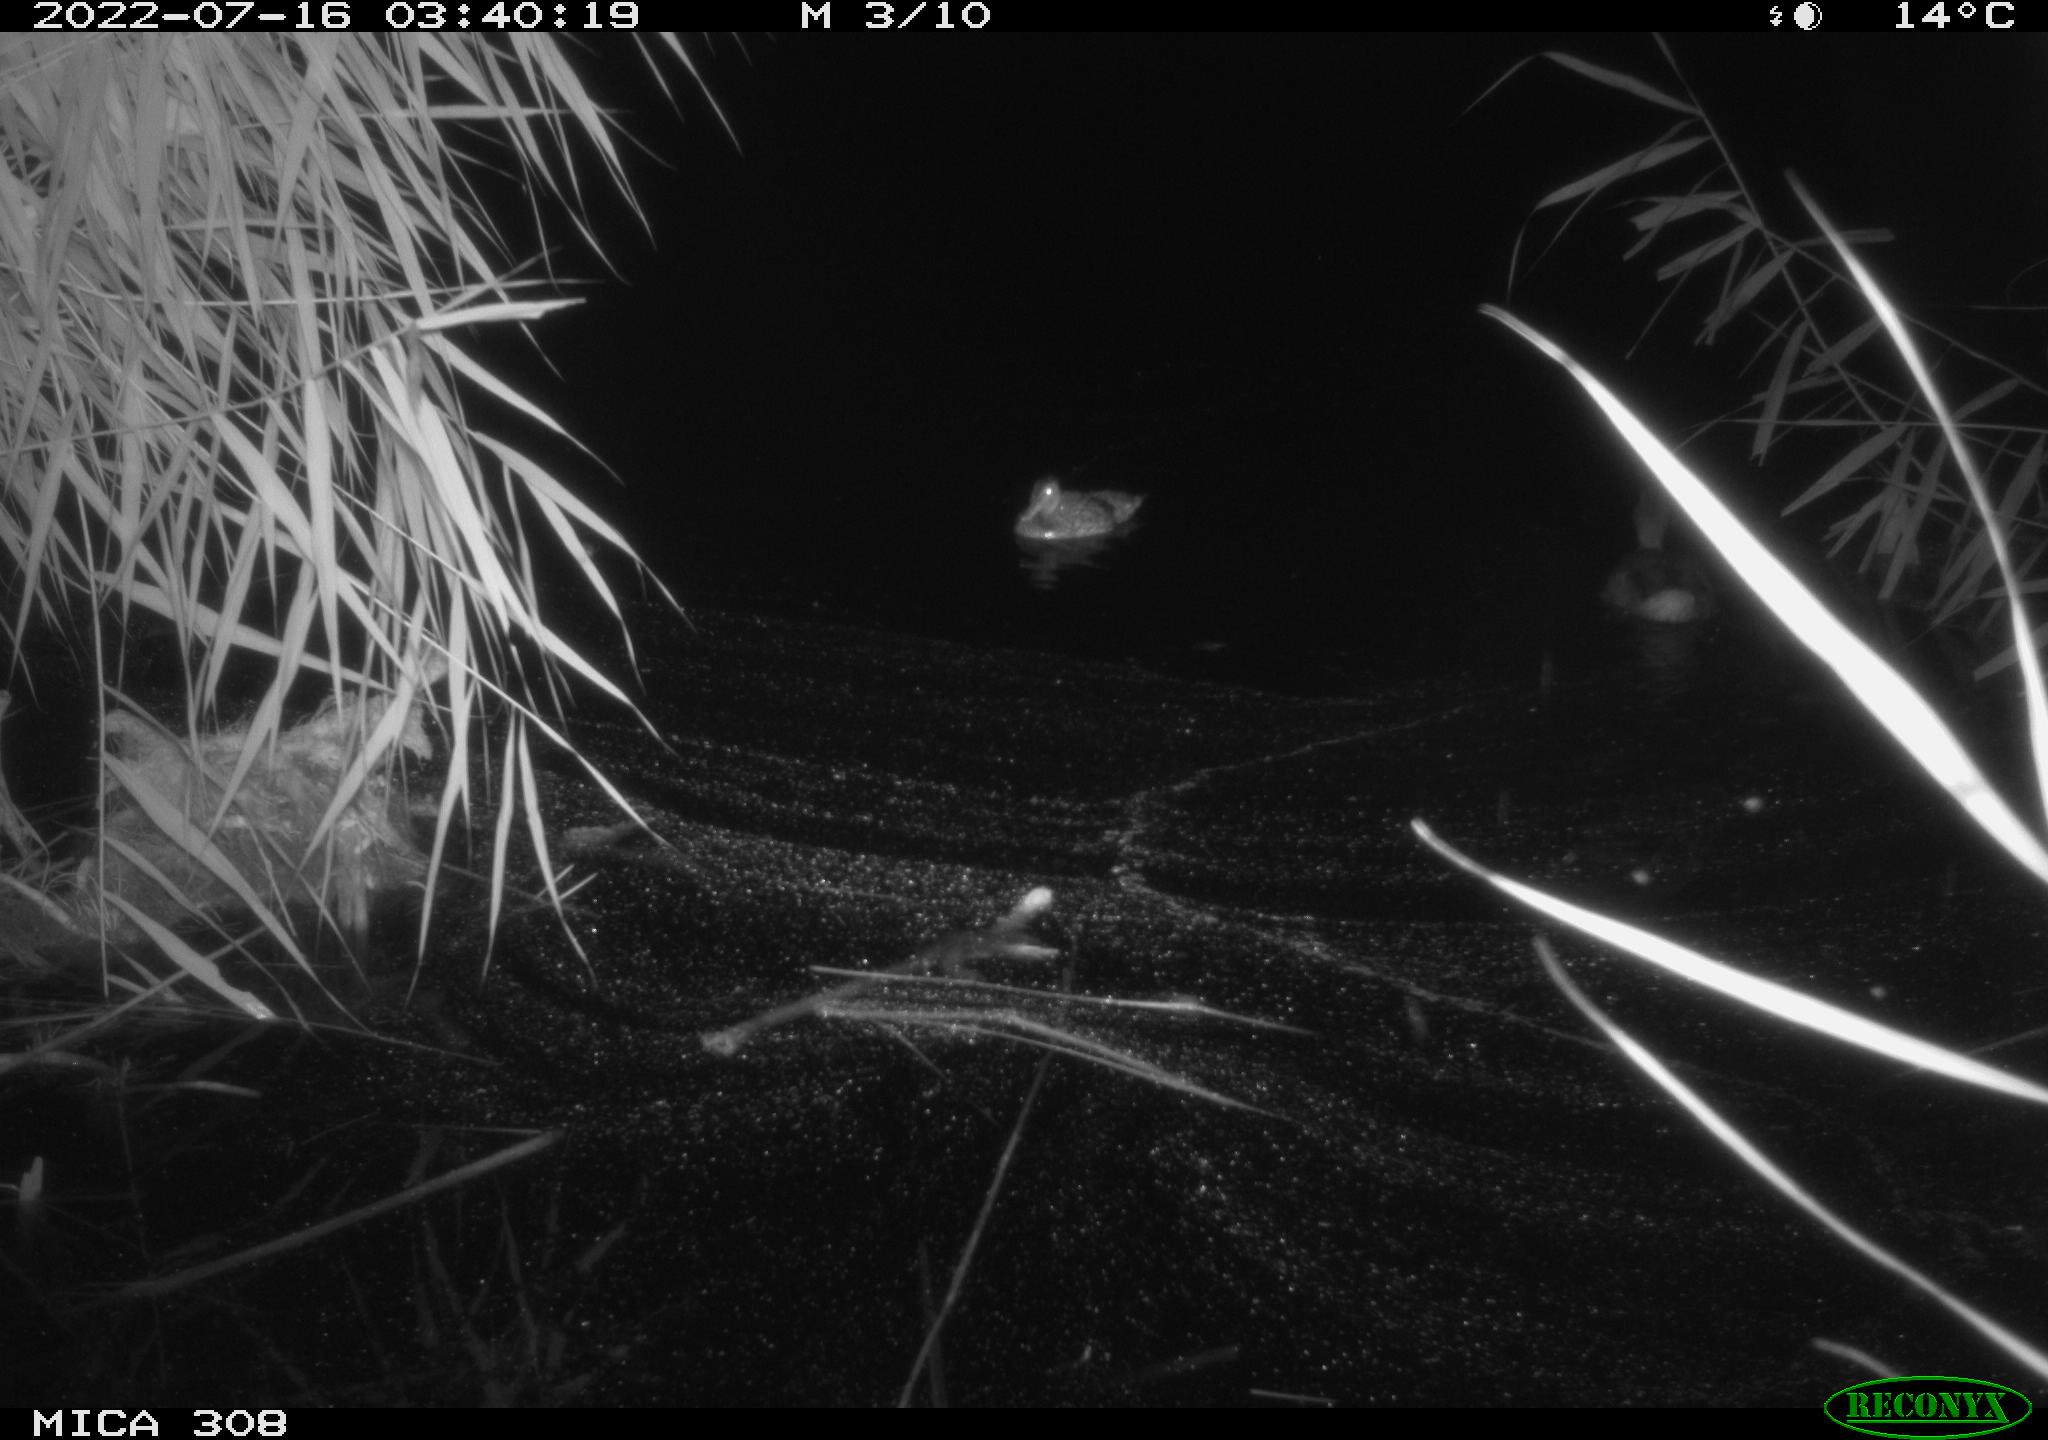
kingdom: Animalia
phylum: Chordata
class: Aves
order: Anseriformes
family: Anatidae
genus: Anas
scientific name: Anas platyrhynchos
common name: Mallard
